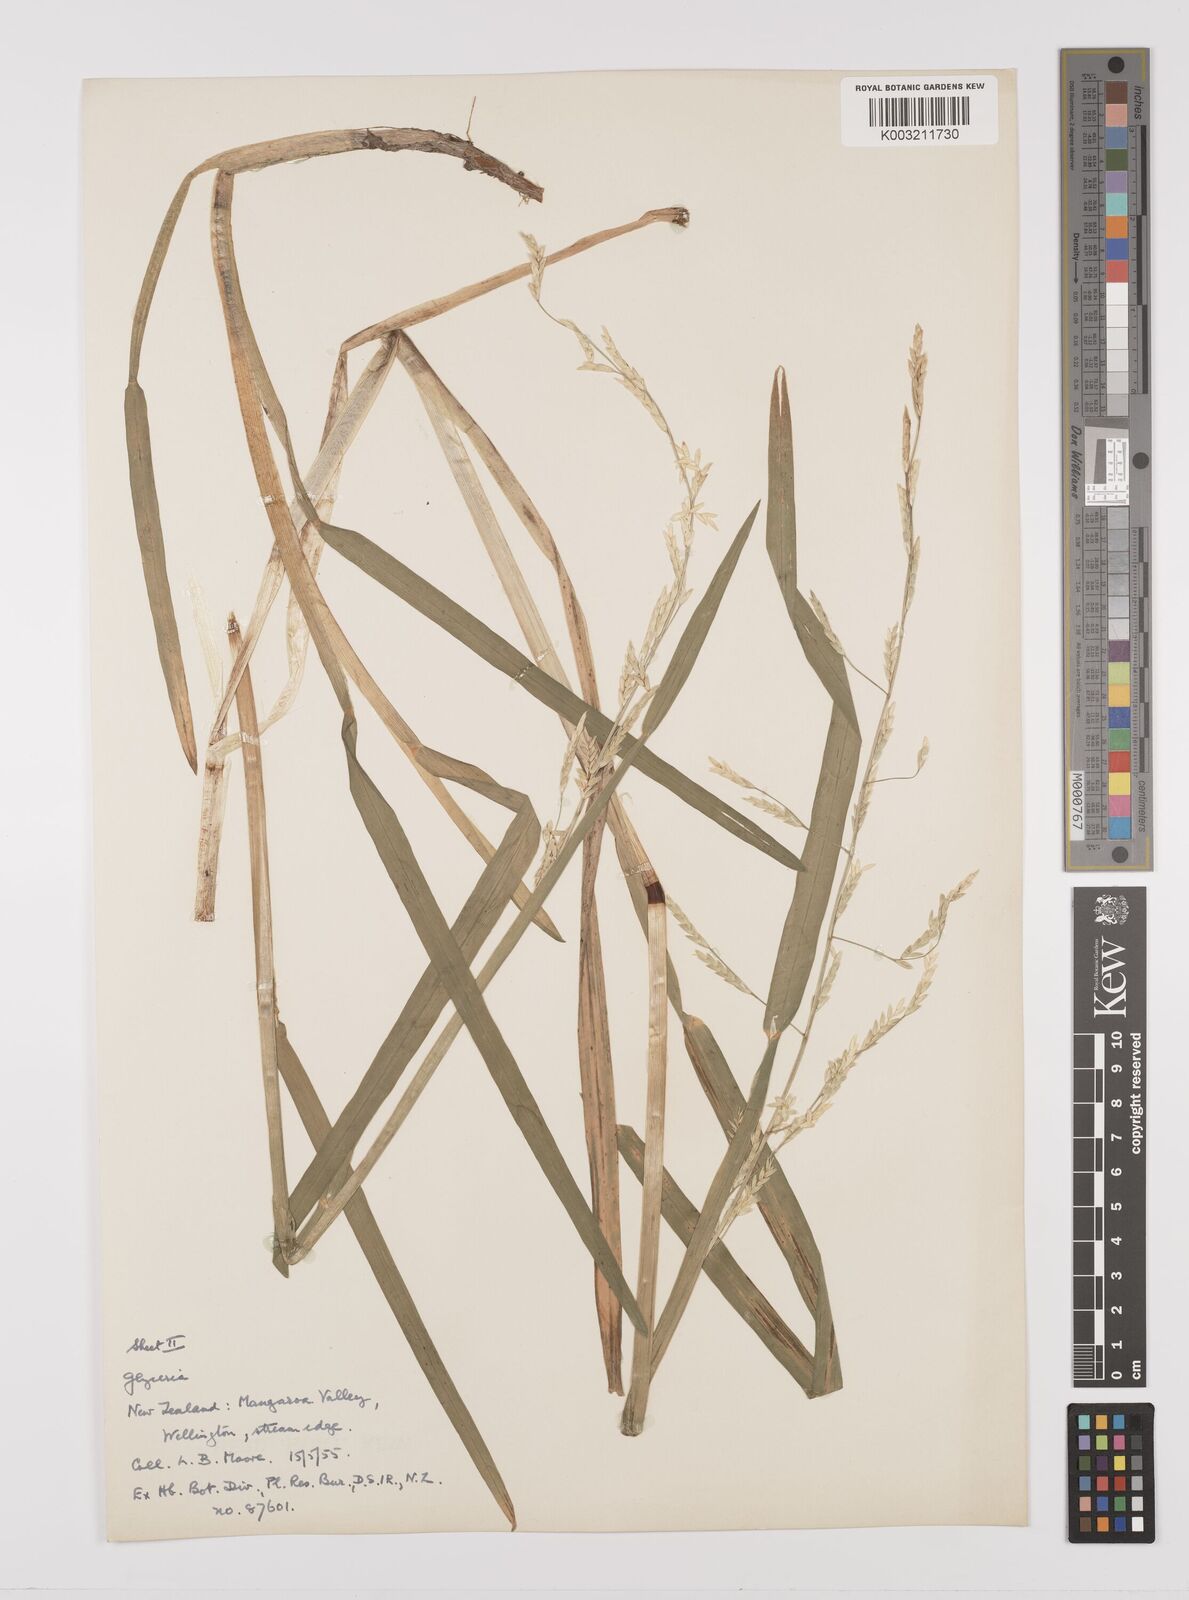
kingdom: Plantae
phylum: Tracheophyta
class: Liliopsida
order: Poales
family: Poaceae
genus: Glyceria
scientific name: Glyceria
